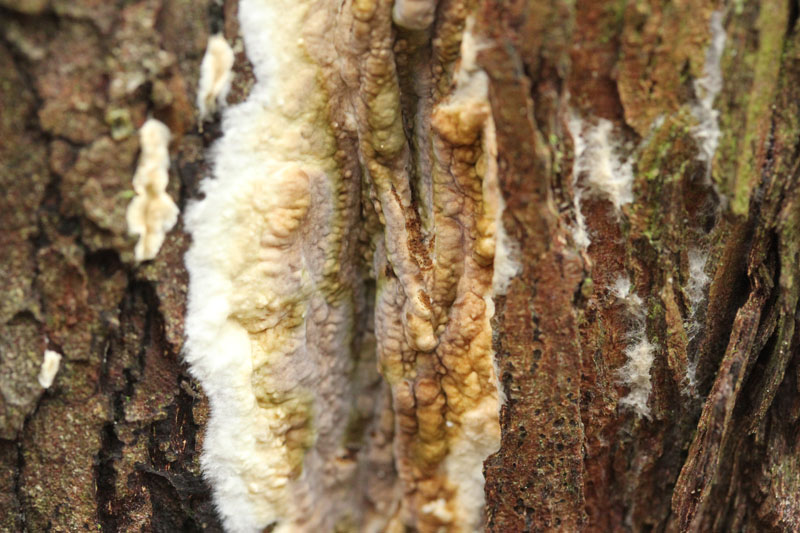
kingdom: Fungi
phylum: Basidiomycota
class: Agaricomycetes
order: Boletales
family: Coniophoraceae
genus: Coniophora
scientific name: Coniophora puteana
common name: gul tømmersvamp
